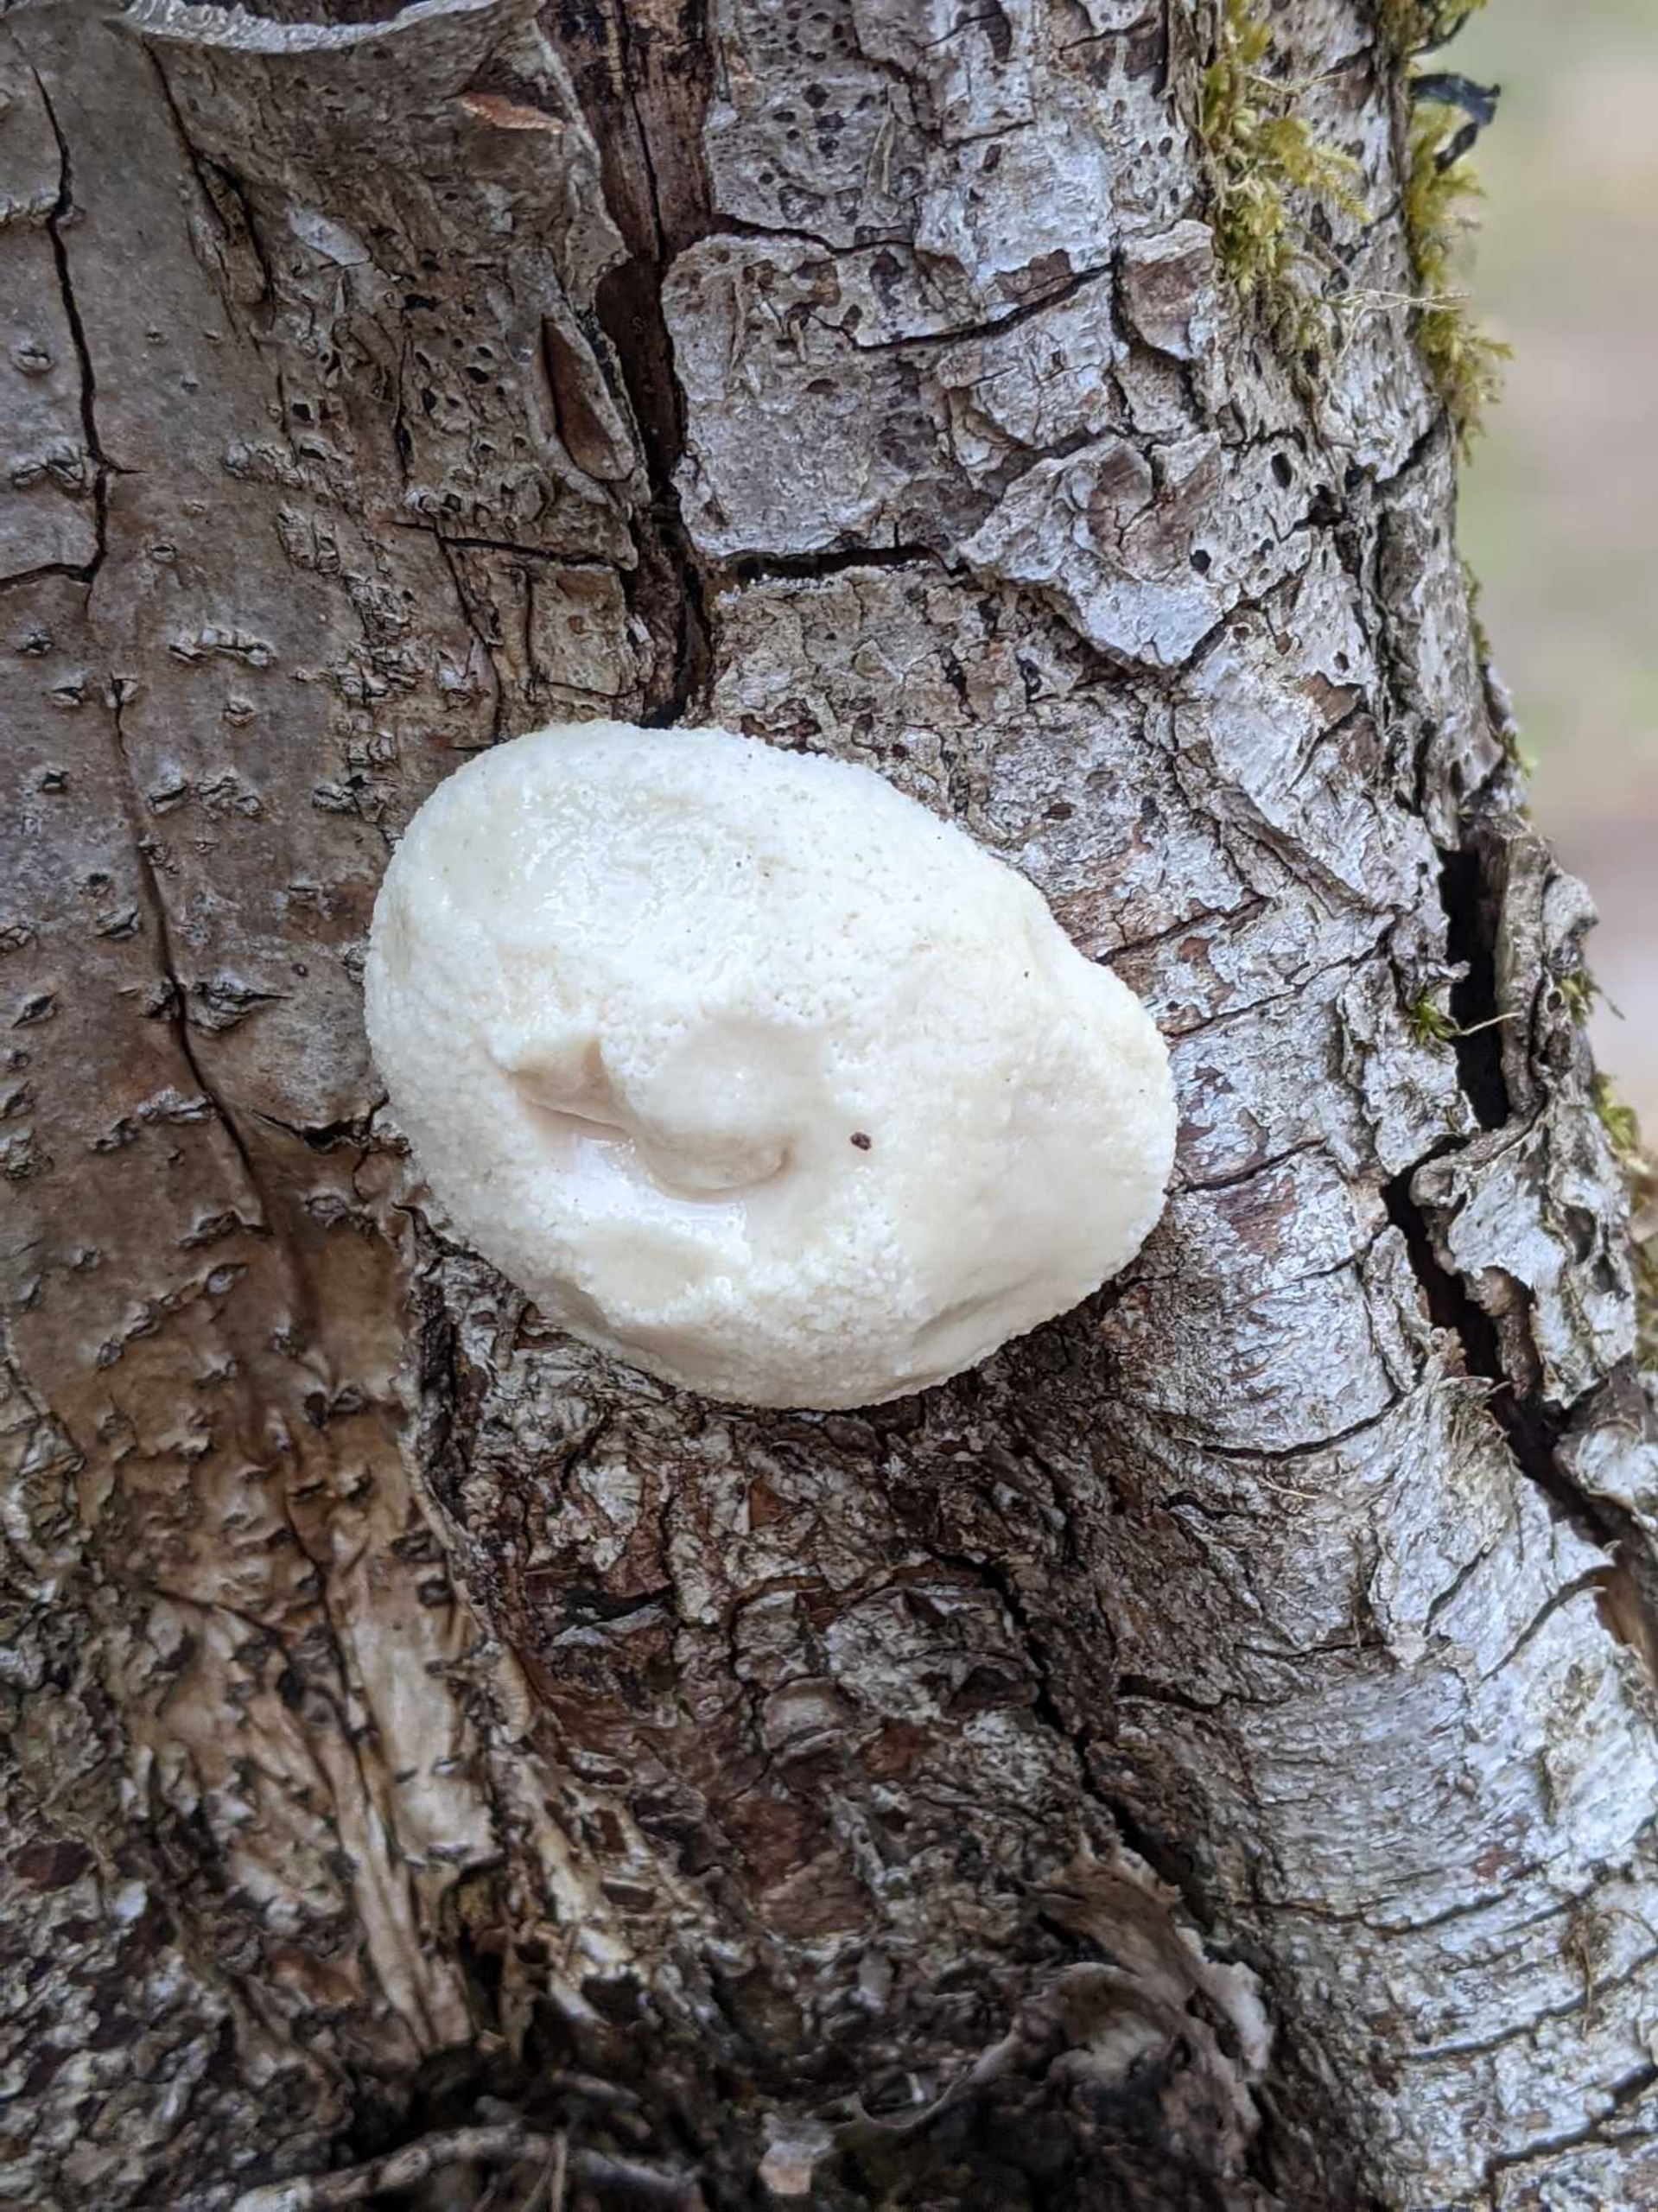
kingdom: Protozoa
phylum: Mycetozoa
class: Myxomycetes
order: Cribrariales
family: Tubiferaceae
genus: Reticularia
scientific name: Reticularia
